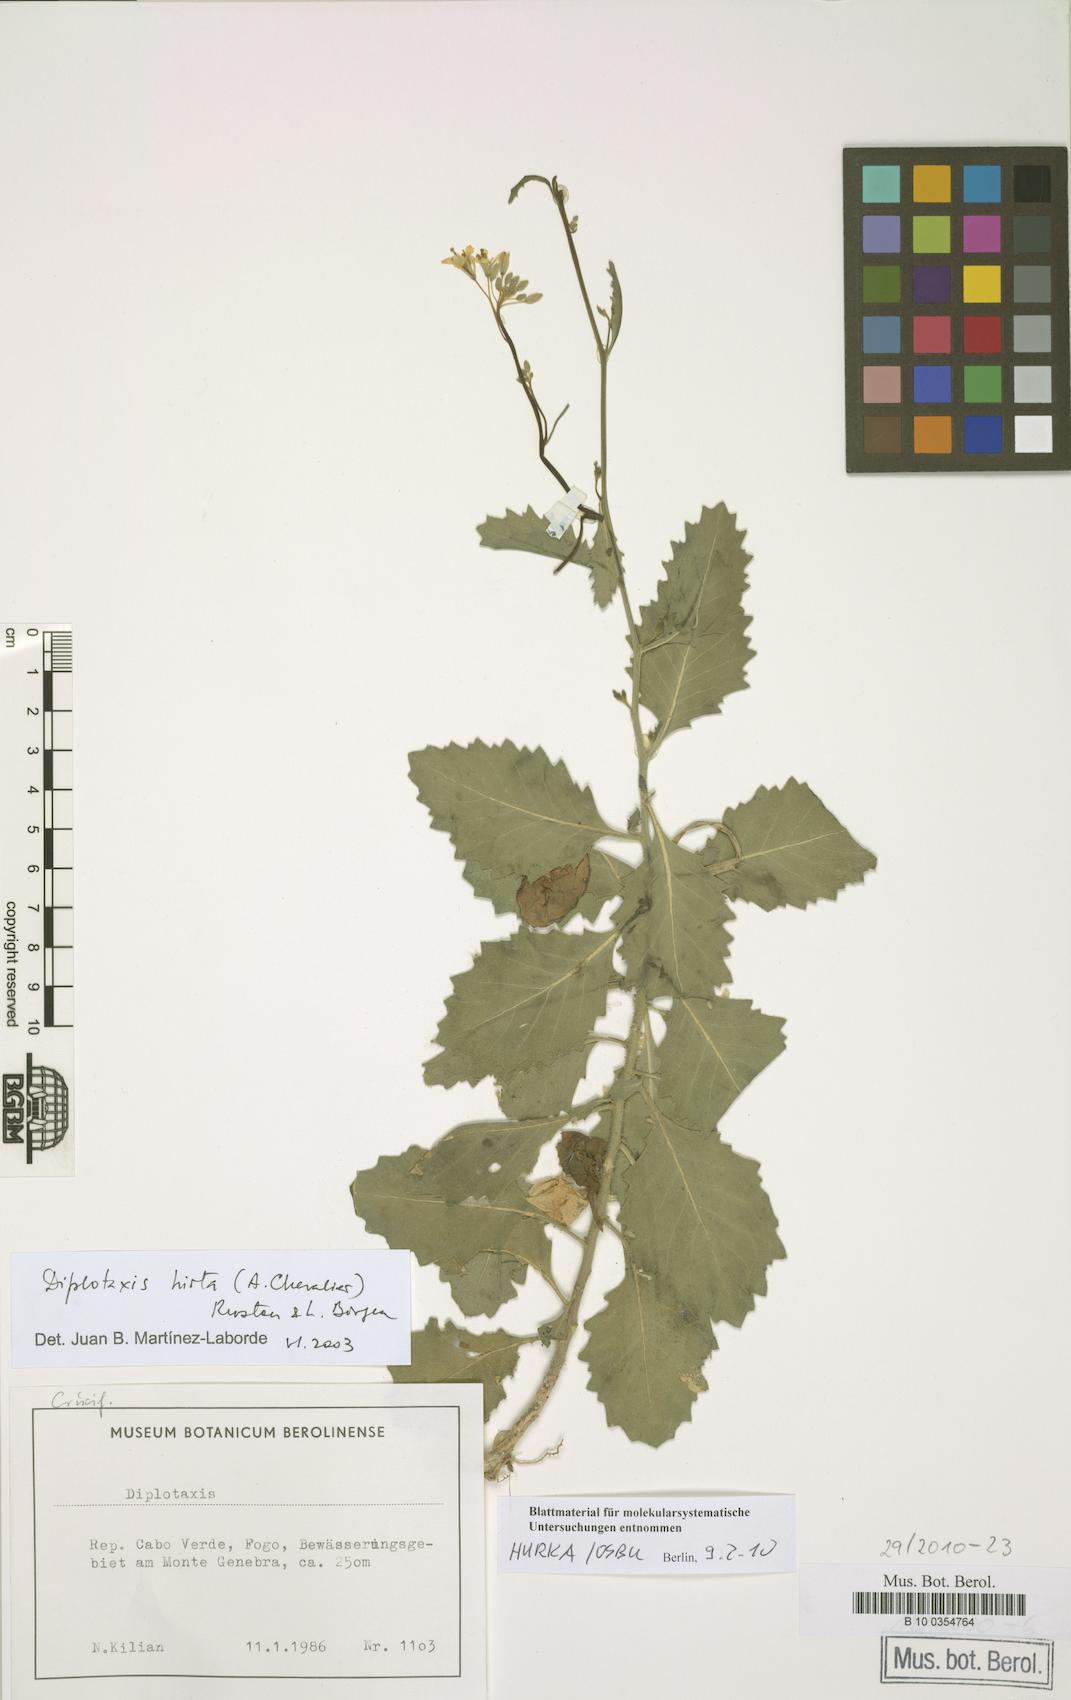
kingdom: Plantae
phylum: Tracheophyta
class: Magnoliopsida
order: Brassicales
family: Brassicaceae
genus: Diplotaxis
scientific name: Diplotaxis hirta
